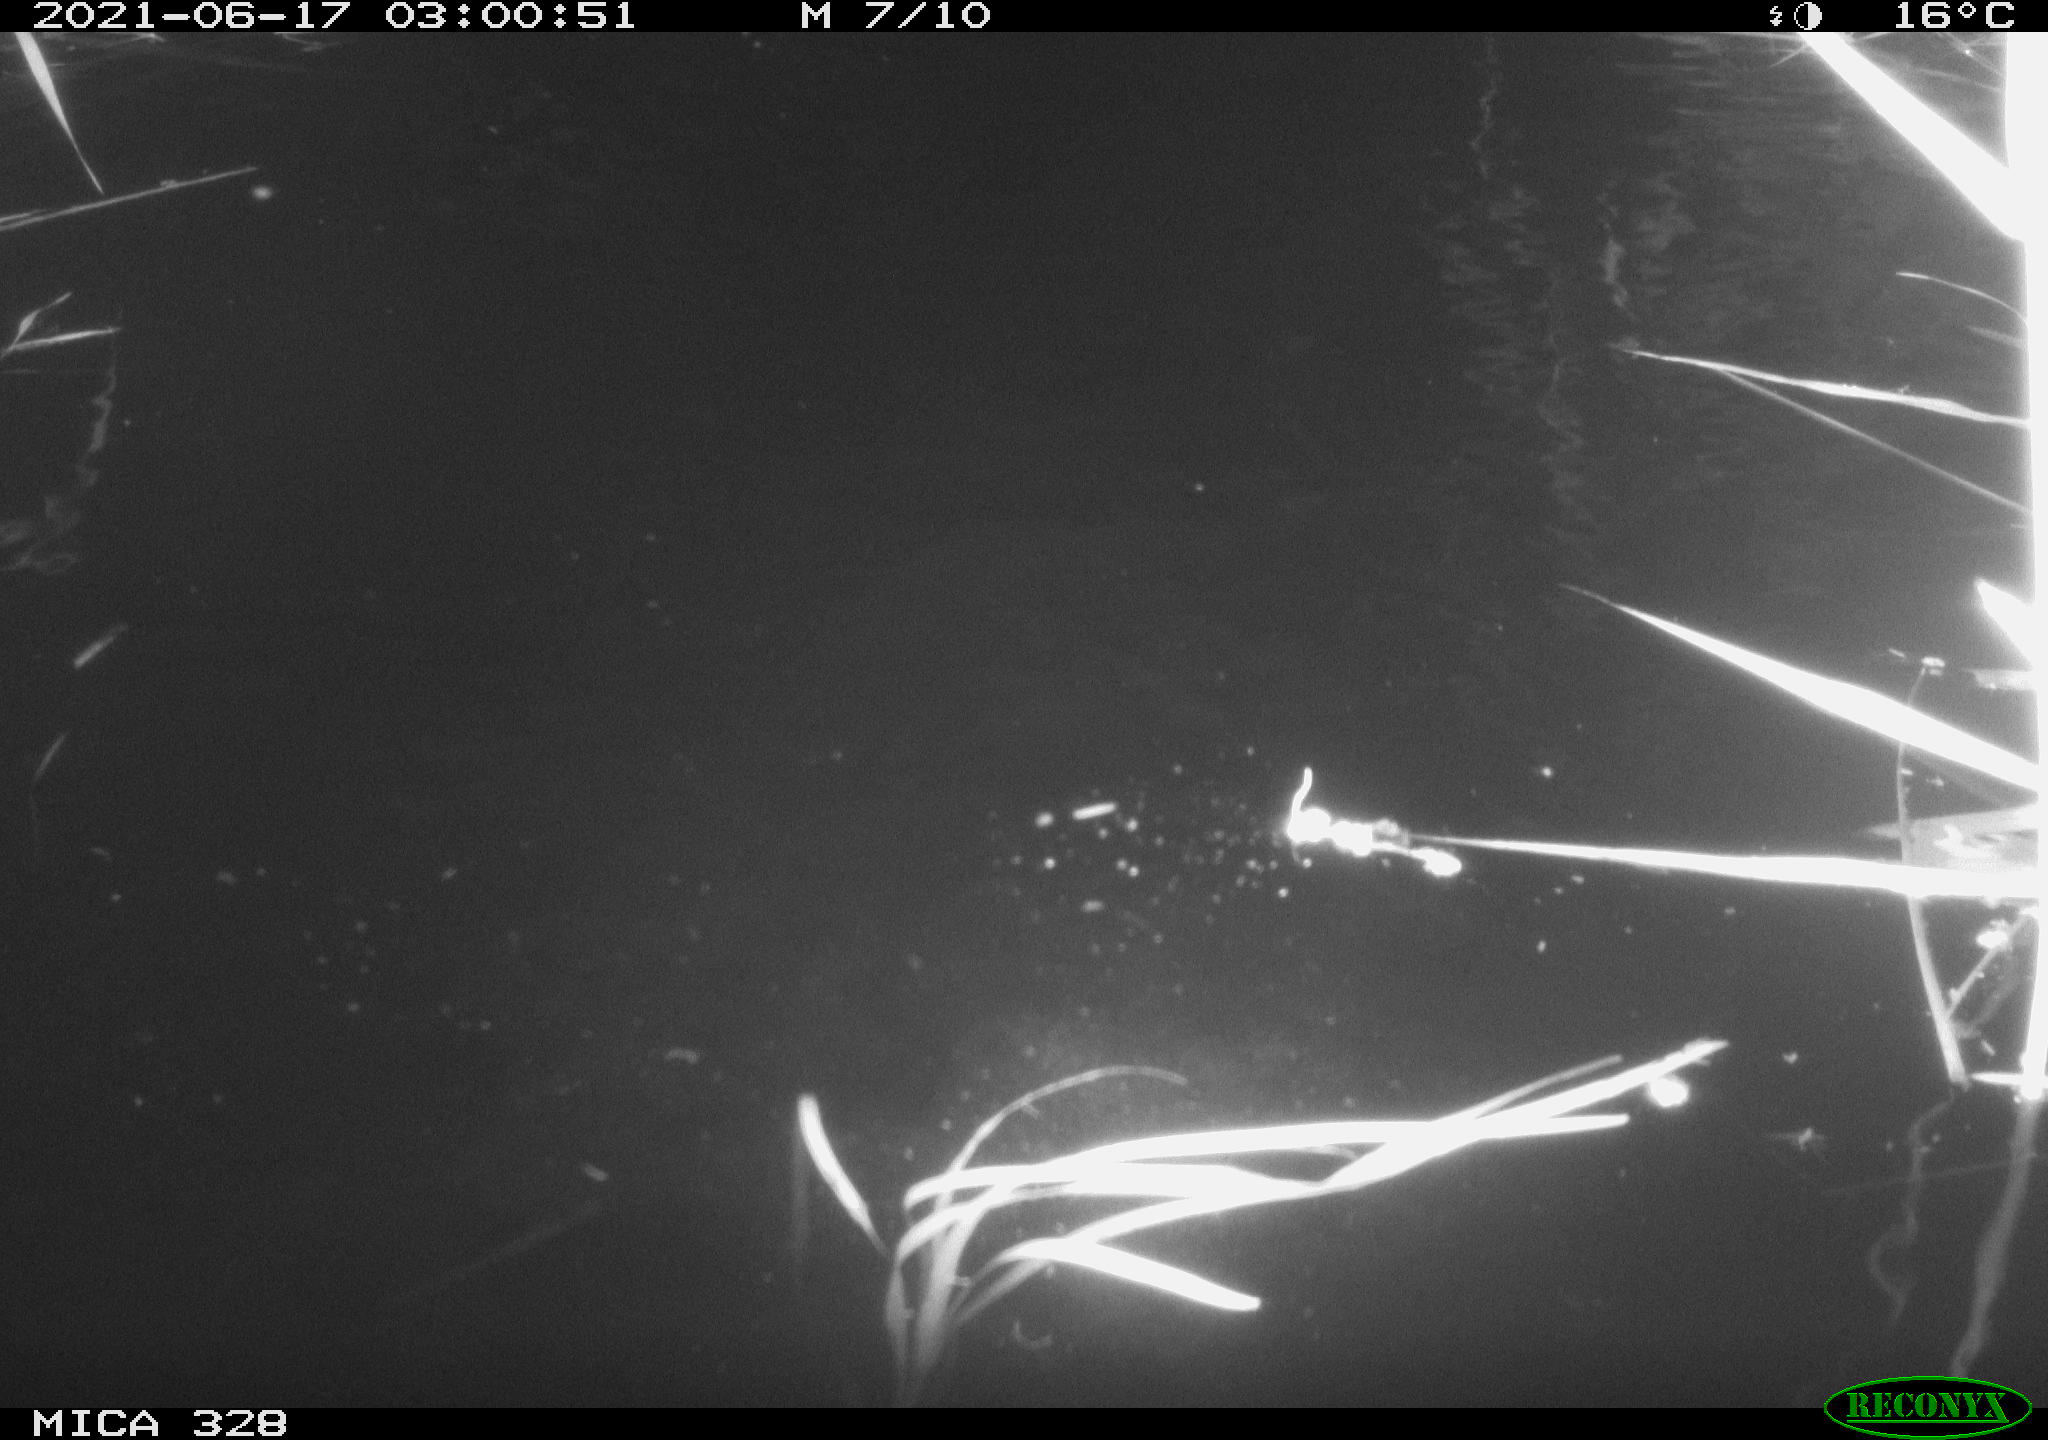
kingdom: Animalia
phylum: Chordata
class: Mammalia
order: Rodentia
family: Cricetidae
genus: Ondatra
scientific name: Ondatra zibethicus
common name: Muskrat
